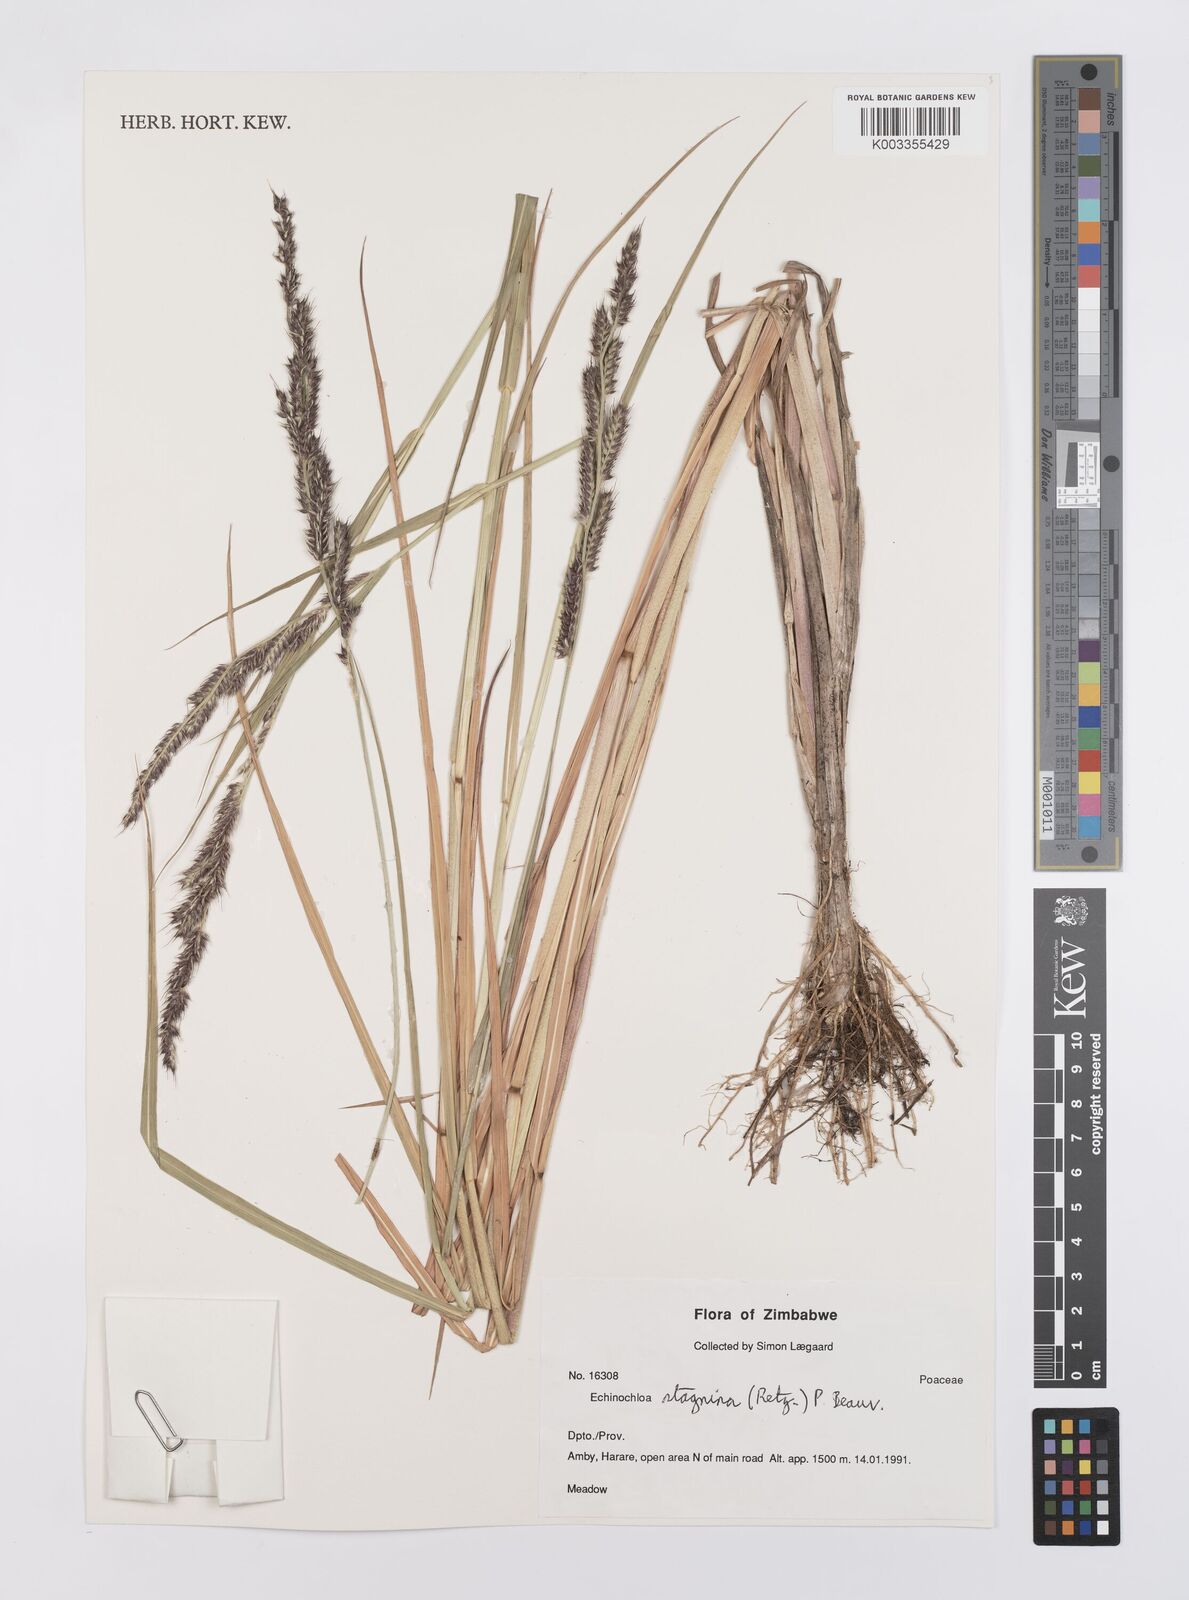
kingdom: Plantae
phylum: Tracheophyta
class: Liliopsida
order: Poales
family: Poaceae
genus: Echinochloa
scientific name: Echinochloa stagnina
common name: Burgu grass
